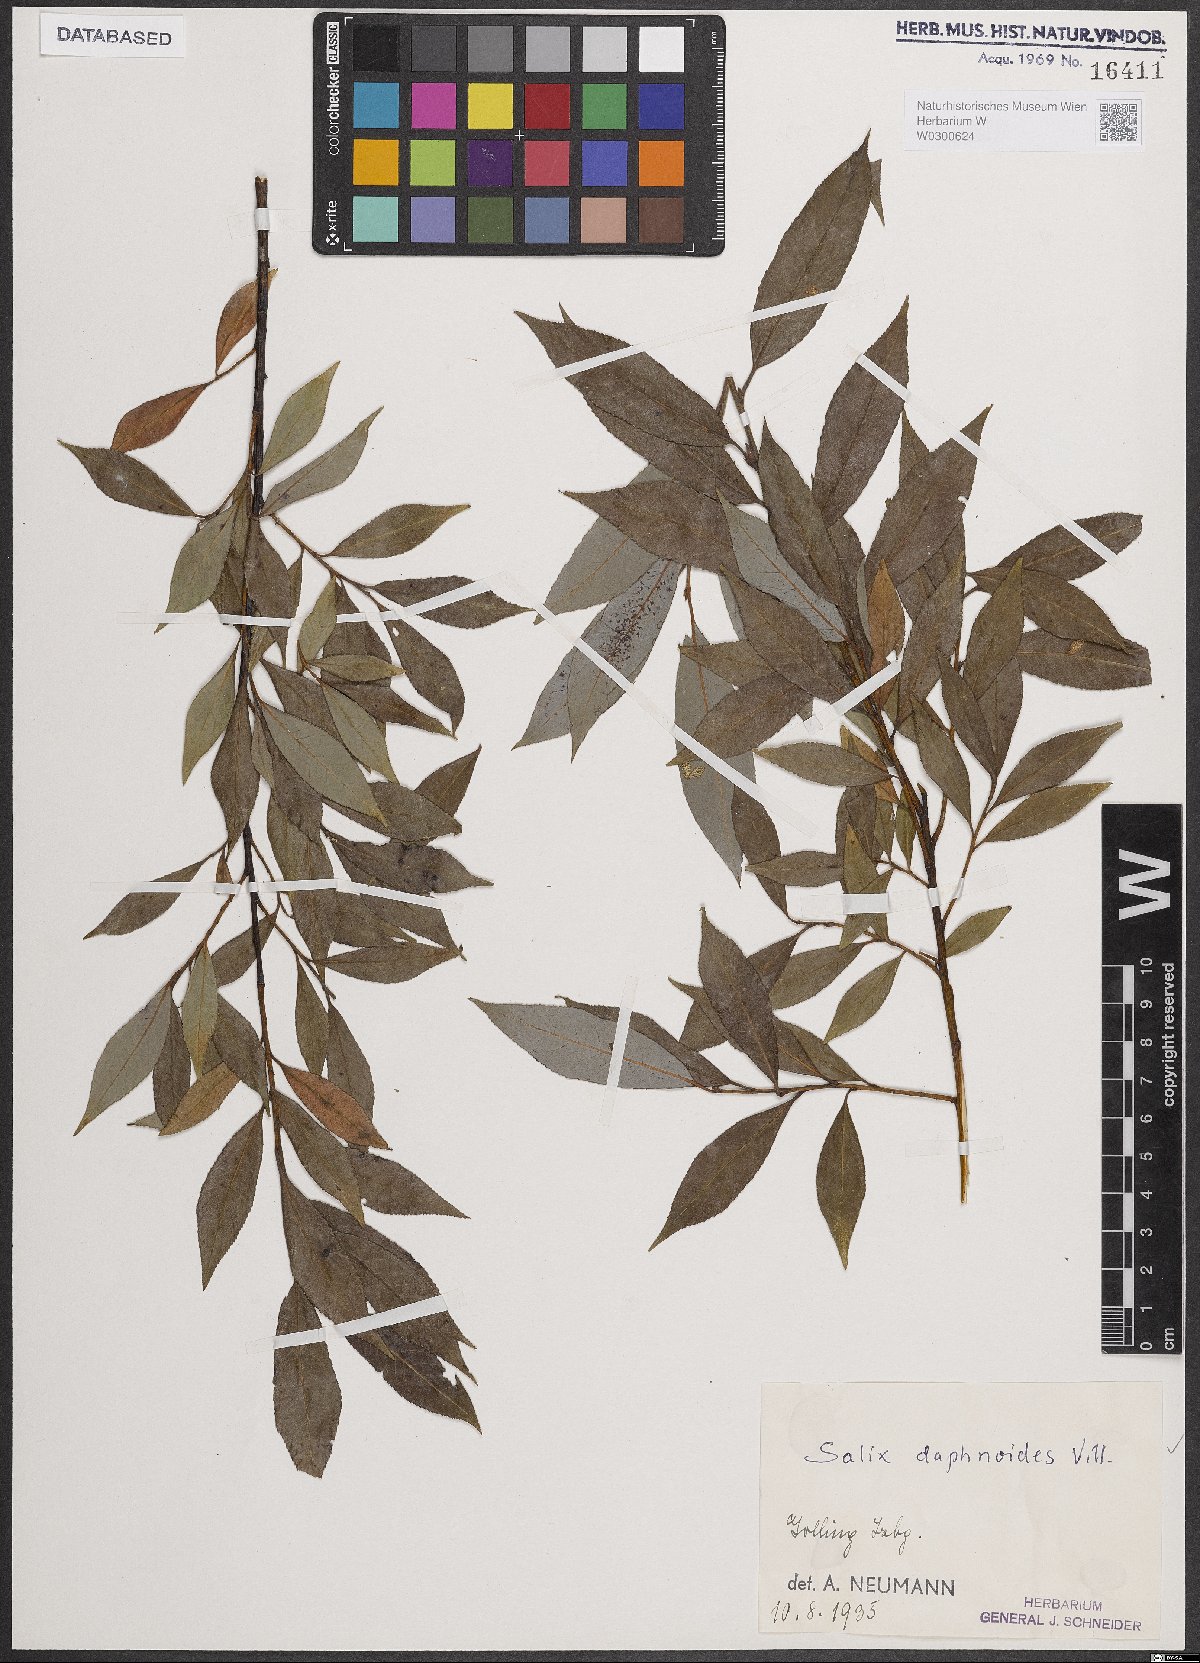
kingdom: Plantae
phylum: Tracheophyta
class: Magnoliopsida
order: Malpighiales
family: Salicaceae
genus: Salix
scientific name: Salix daphnoides
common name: European violet-willow
